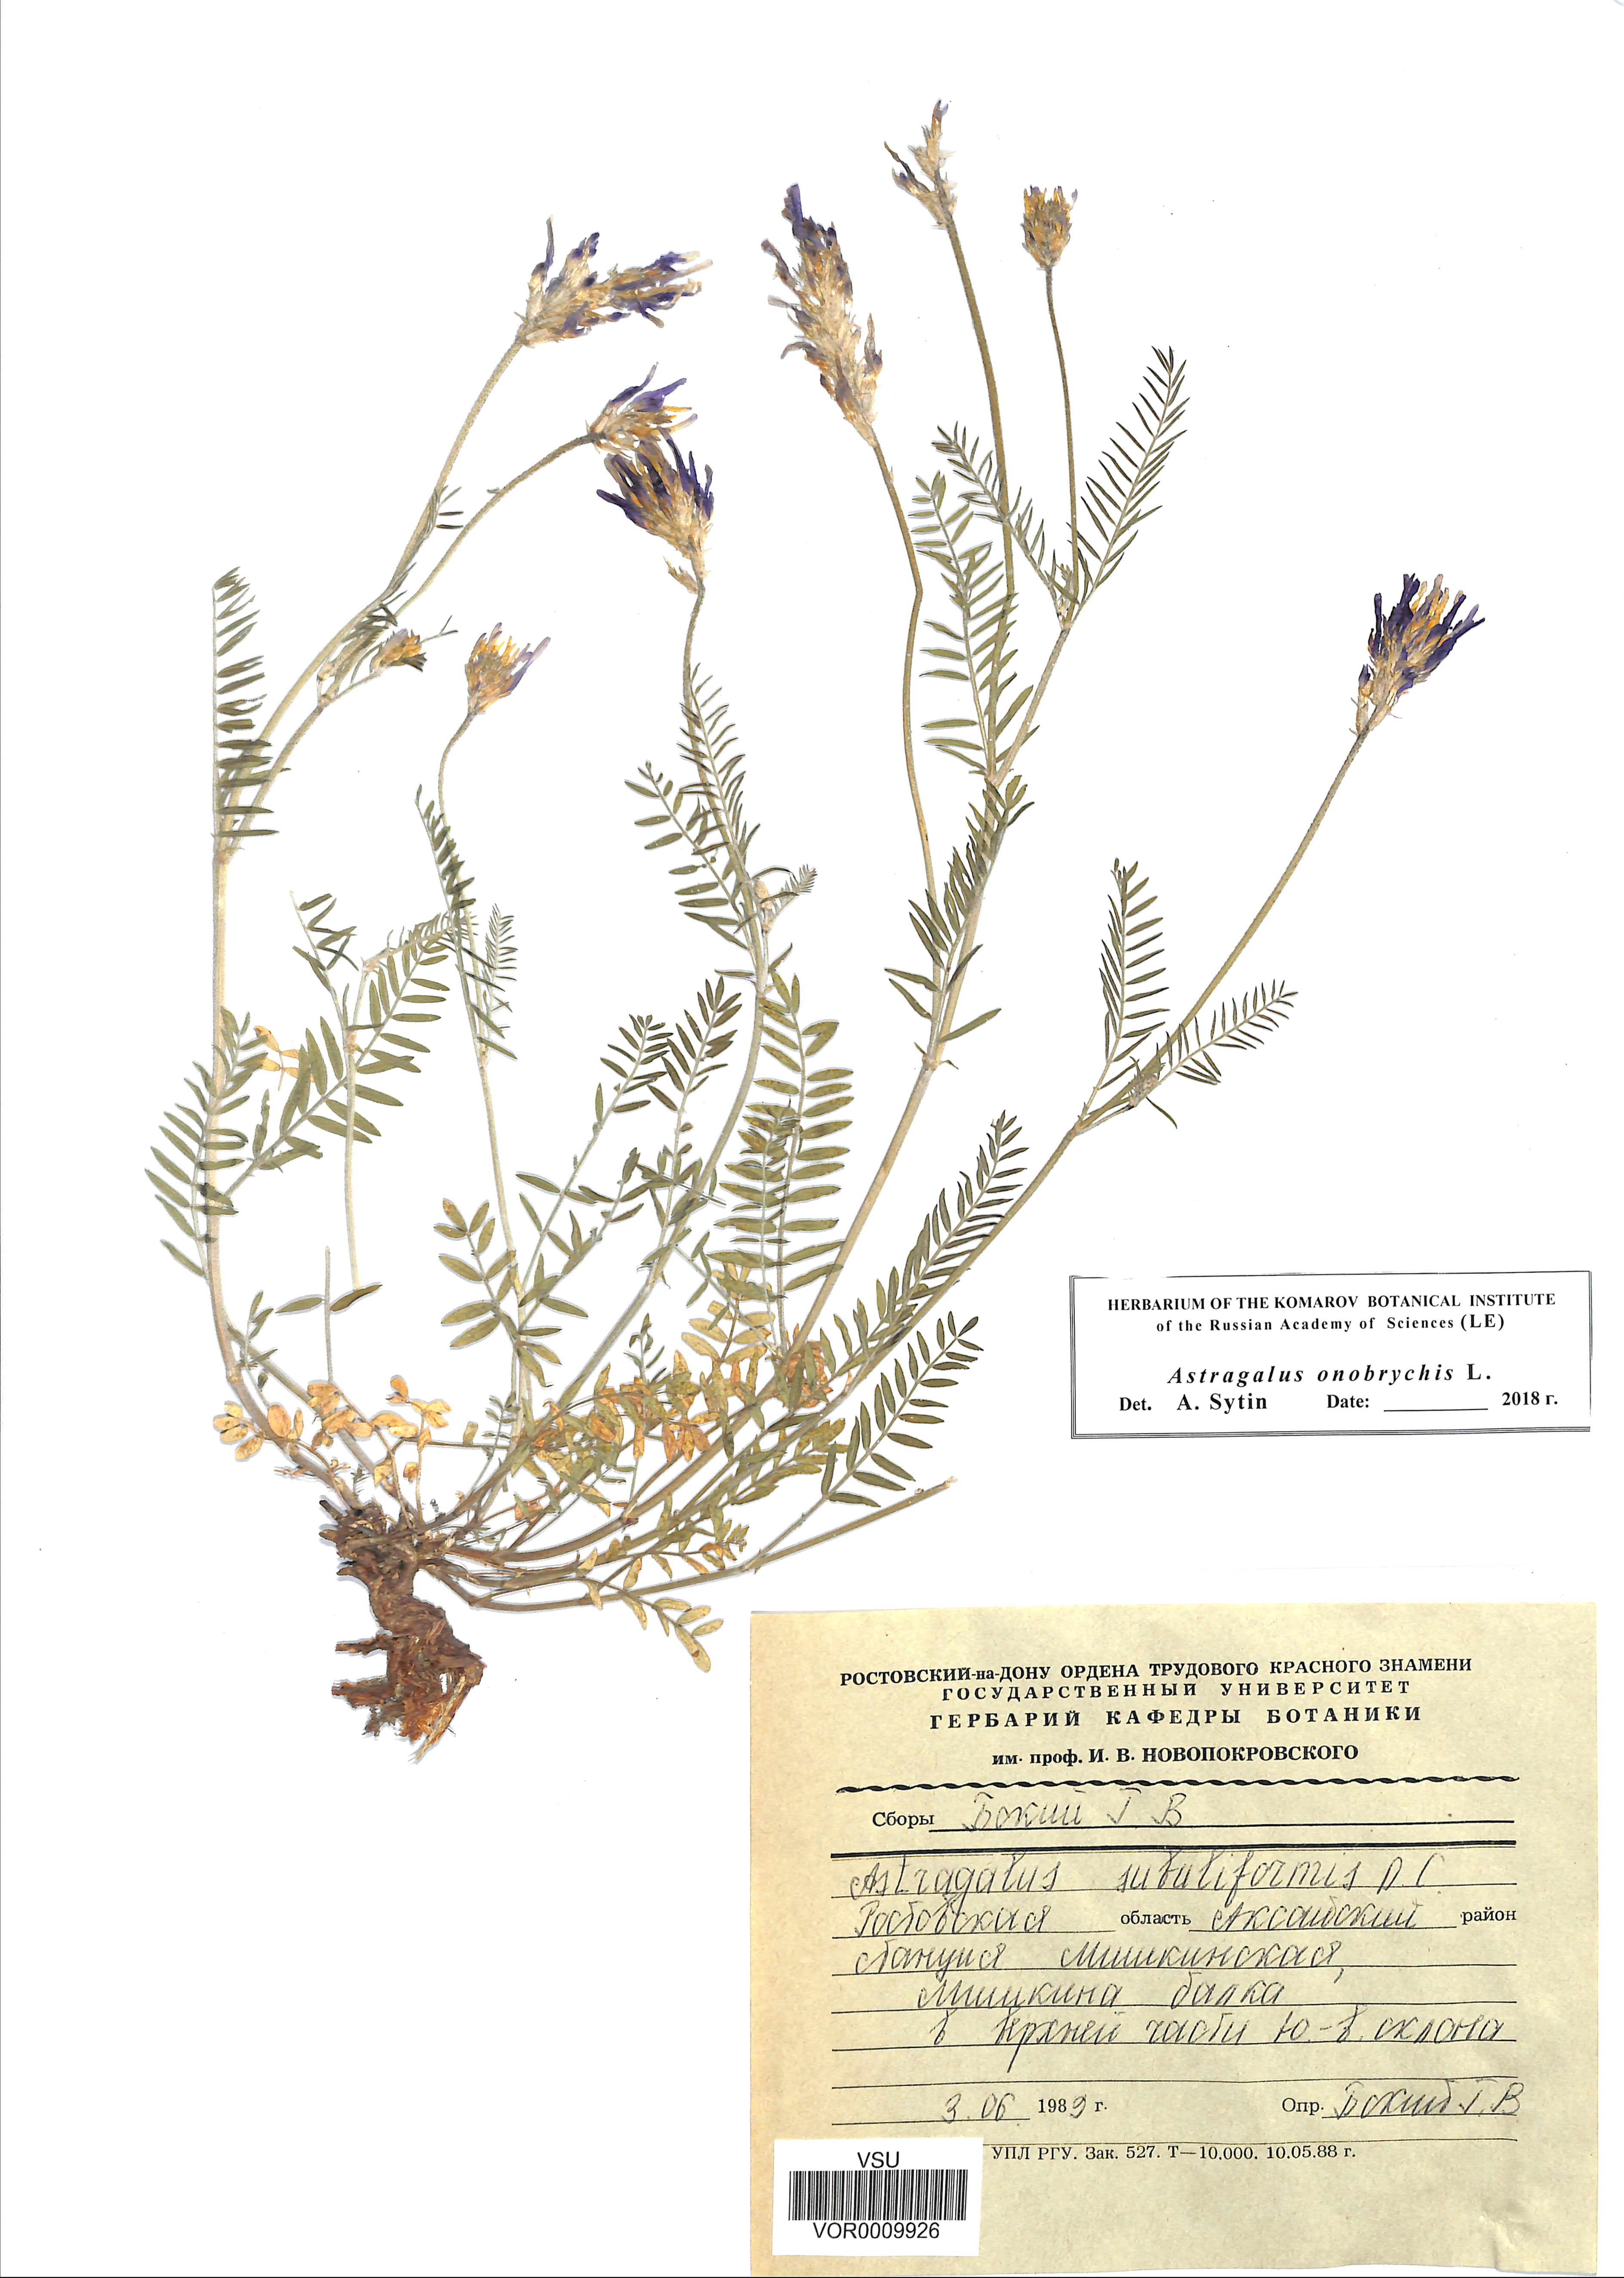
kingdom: Plantae
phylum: Tracheophyta
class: Magnoliopsida
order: Fabales
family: Fabaceae
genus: Astragalus
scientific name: Astragalus onobrychis
